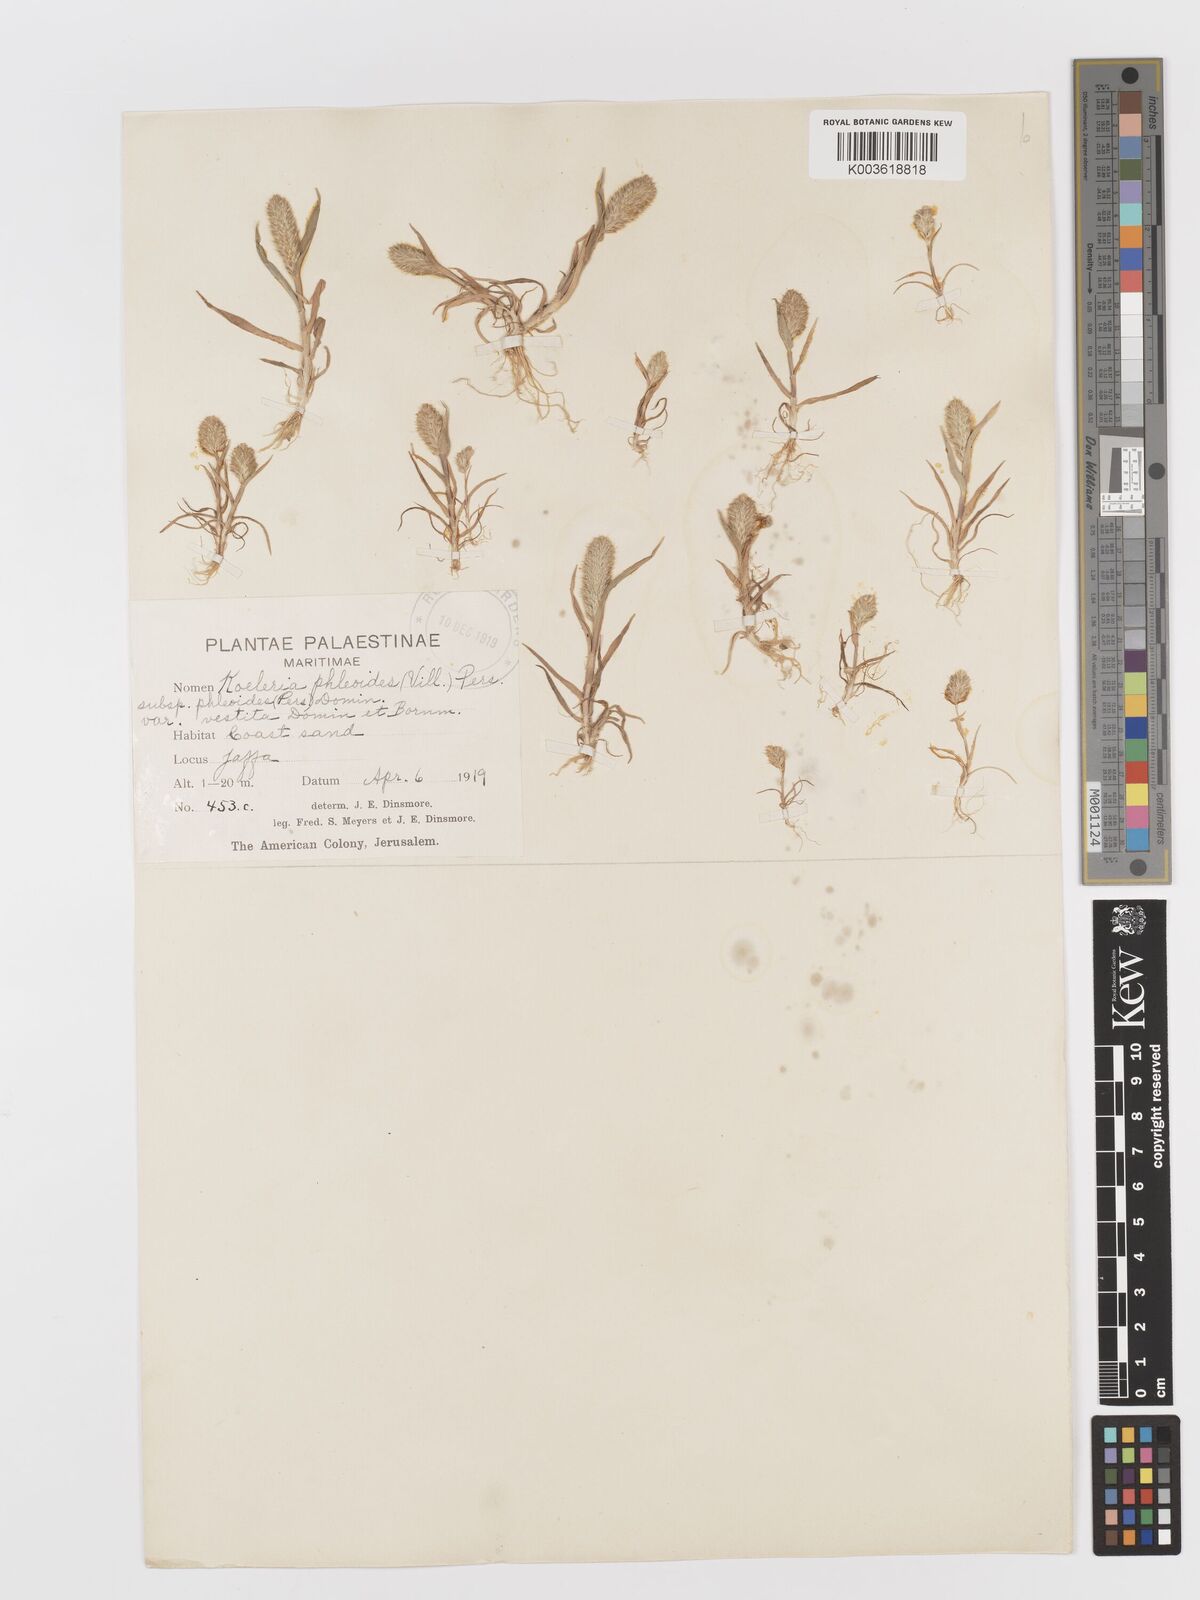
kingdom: Plantae
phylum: Tracheophyta
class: Liliopsida
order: Poales
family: Poaceae
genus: Rostraria
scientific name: Rostraria cristata
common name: Mediterranean hair-grass
